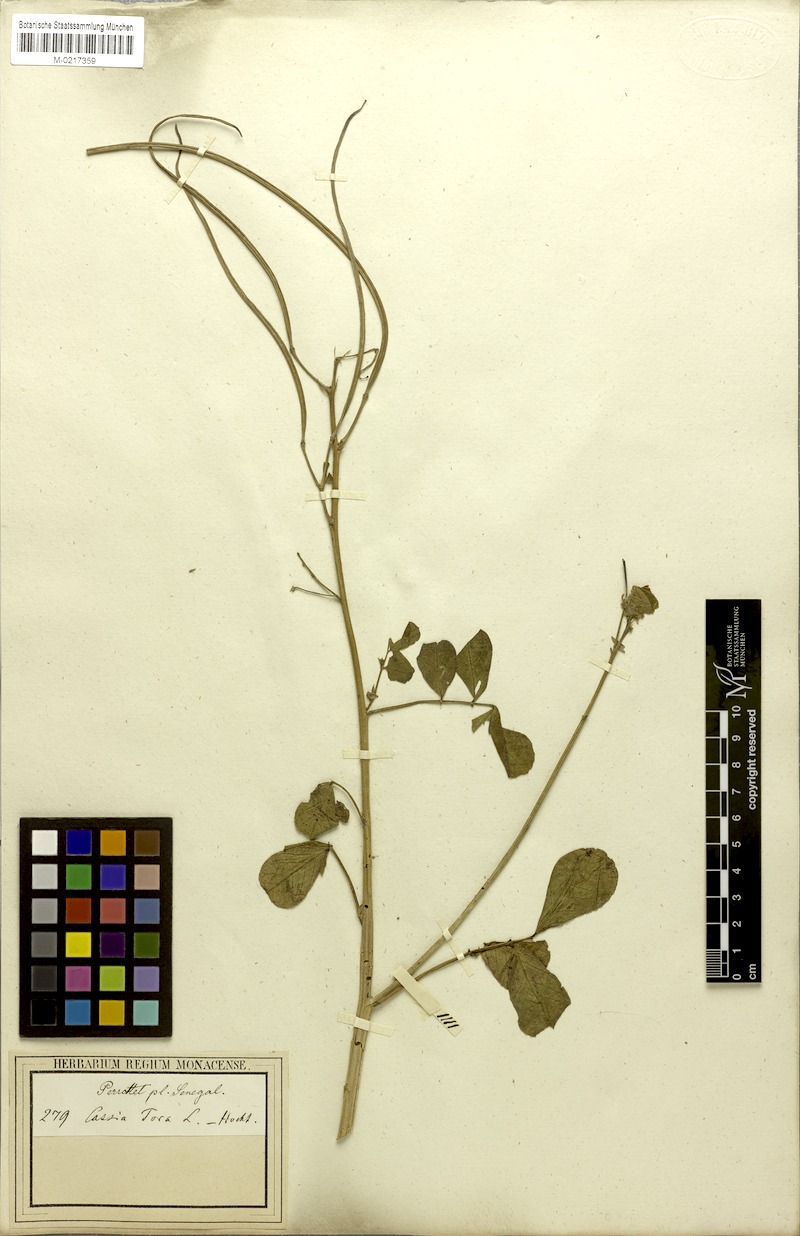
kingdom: Plantae
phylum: Tracheophyta
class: Magnoliopsida
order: Fabales
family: Fabaceae
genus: Senna
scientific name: Senna obtusifolia
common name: Java-bean
